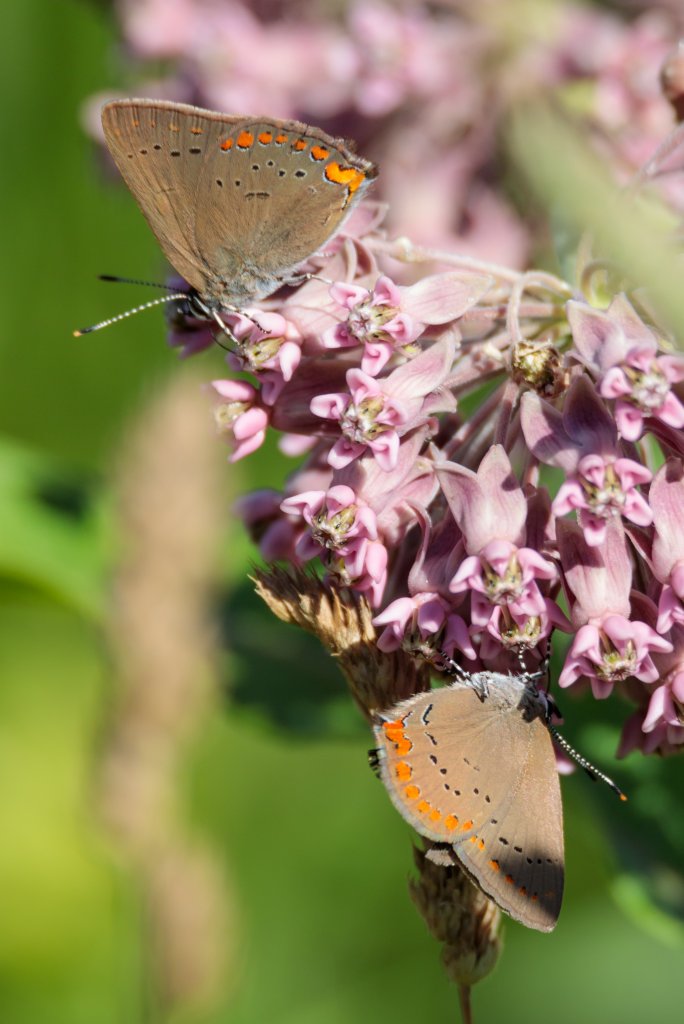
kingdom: Animalia
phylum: Arthropoda
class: Insecta
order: Lepidoptera
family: Lycaenidae
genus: Harkenclenus
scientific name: Harkenclenus titus
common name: Coral Hairstreak
